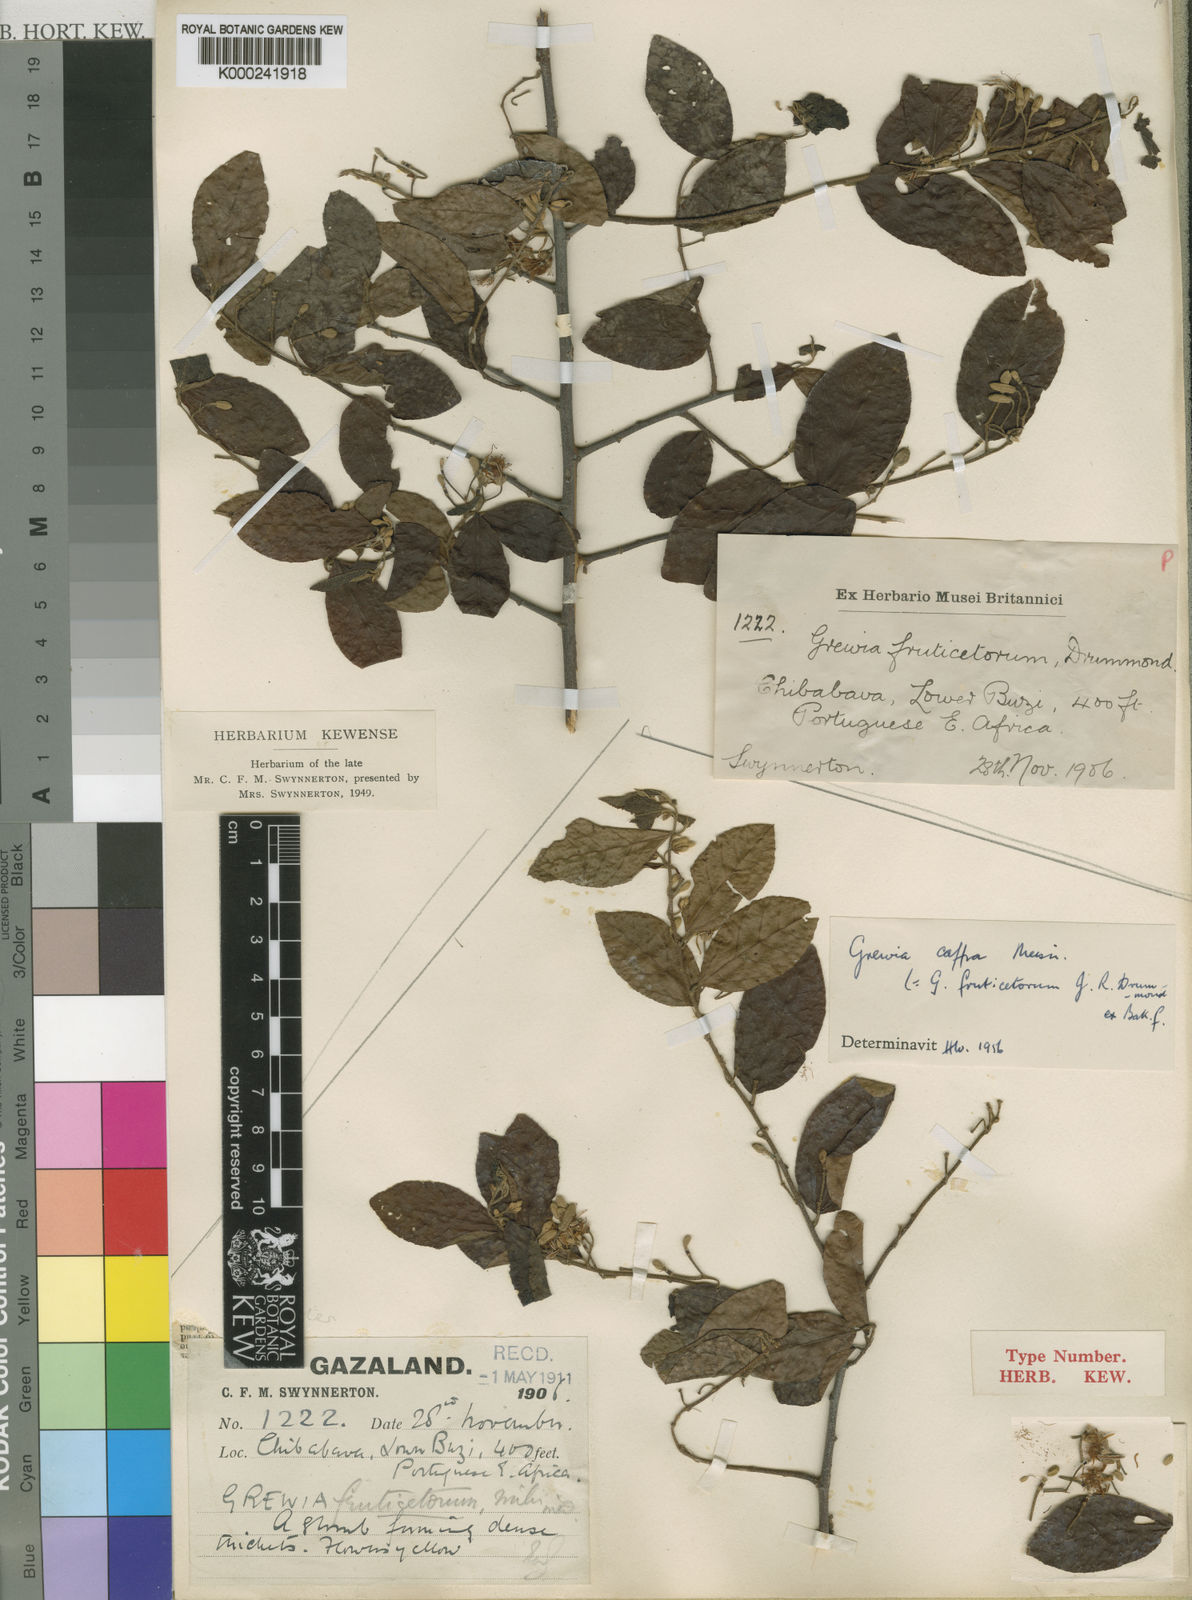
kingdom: Plantae
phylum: Tracheophyta
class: Magnoliopsida
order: Malvales
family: Malvaceae
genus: Grewia
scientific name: Grewia caffra
